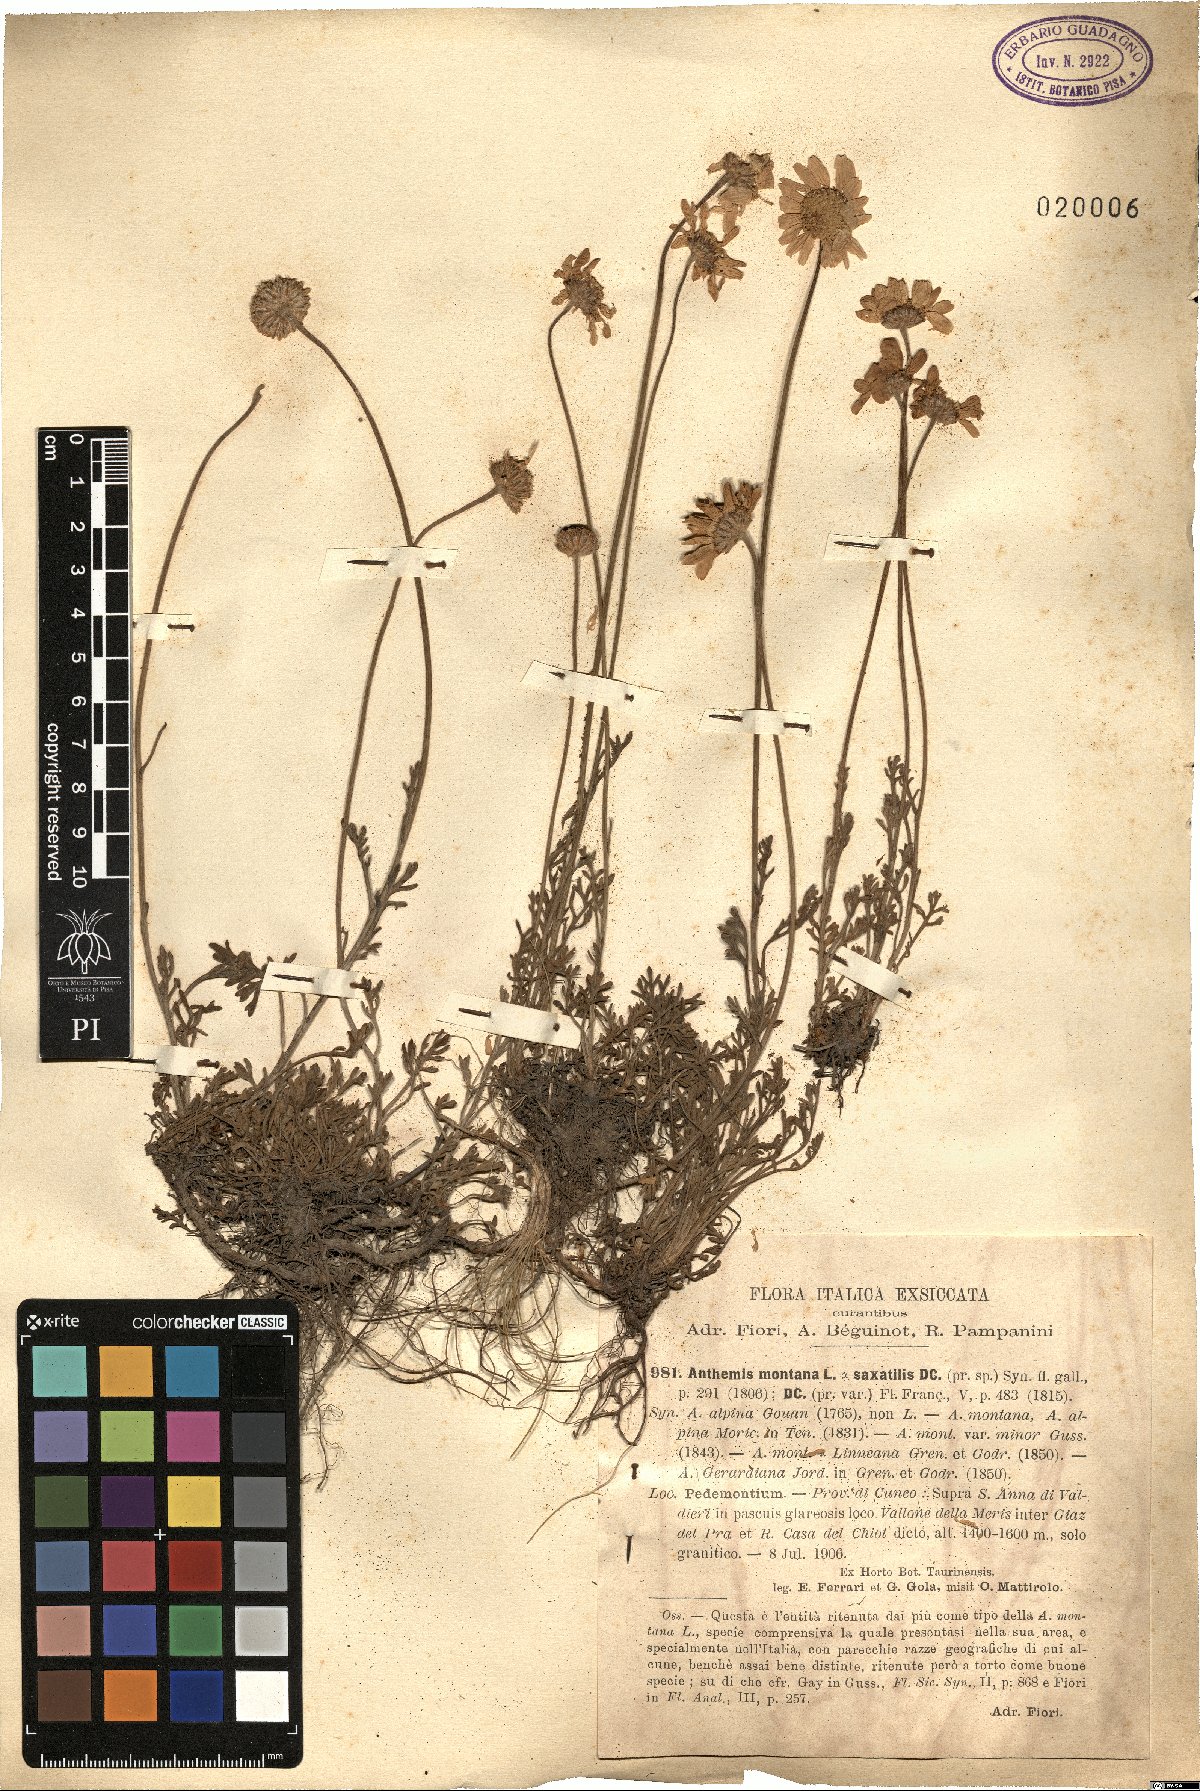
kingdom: Plantae
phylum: Tracheophyta
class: Magnoliopsida
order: Asterales
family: Asteraceae
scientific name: Asteraceae
